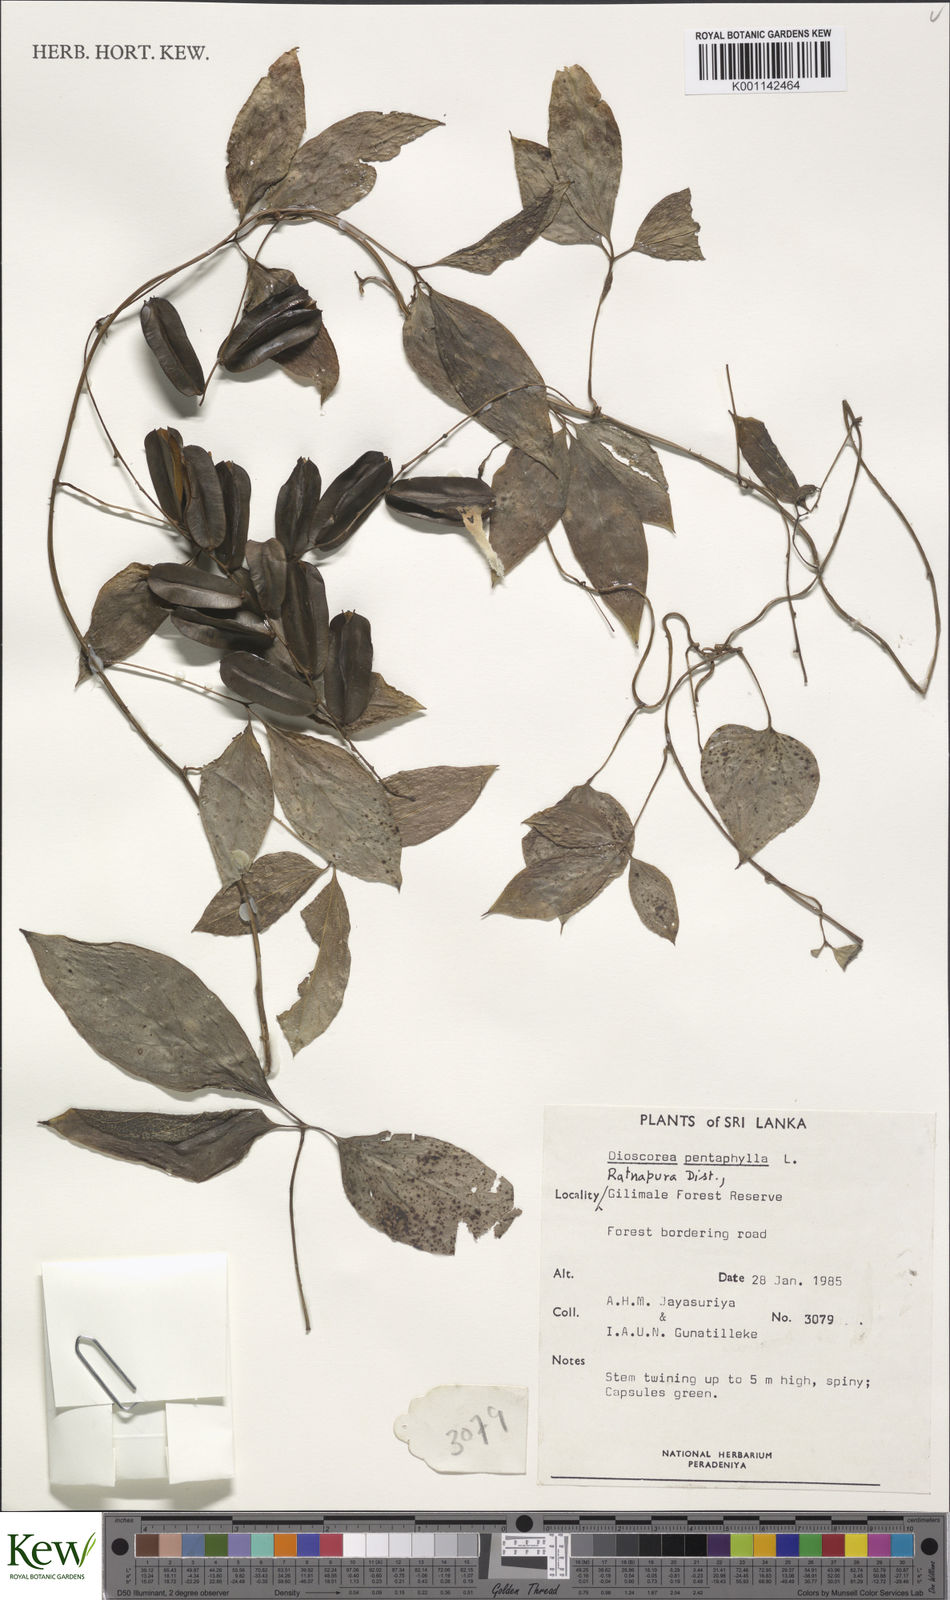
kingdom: Plantae
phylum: Tracheophyta
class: Liliopsida
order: Dioscoreales
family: Dioscoreaceae
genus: Dioscorea
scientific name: Dioscorea pentaphylla
